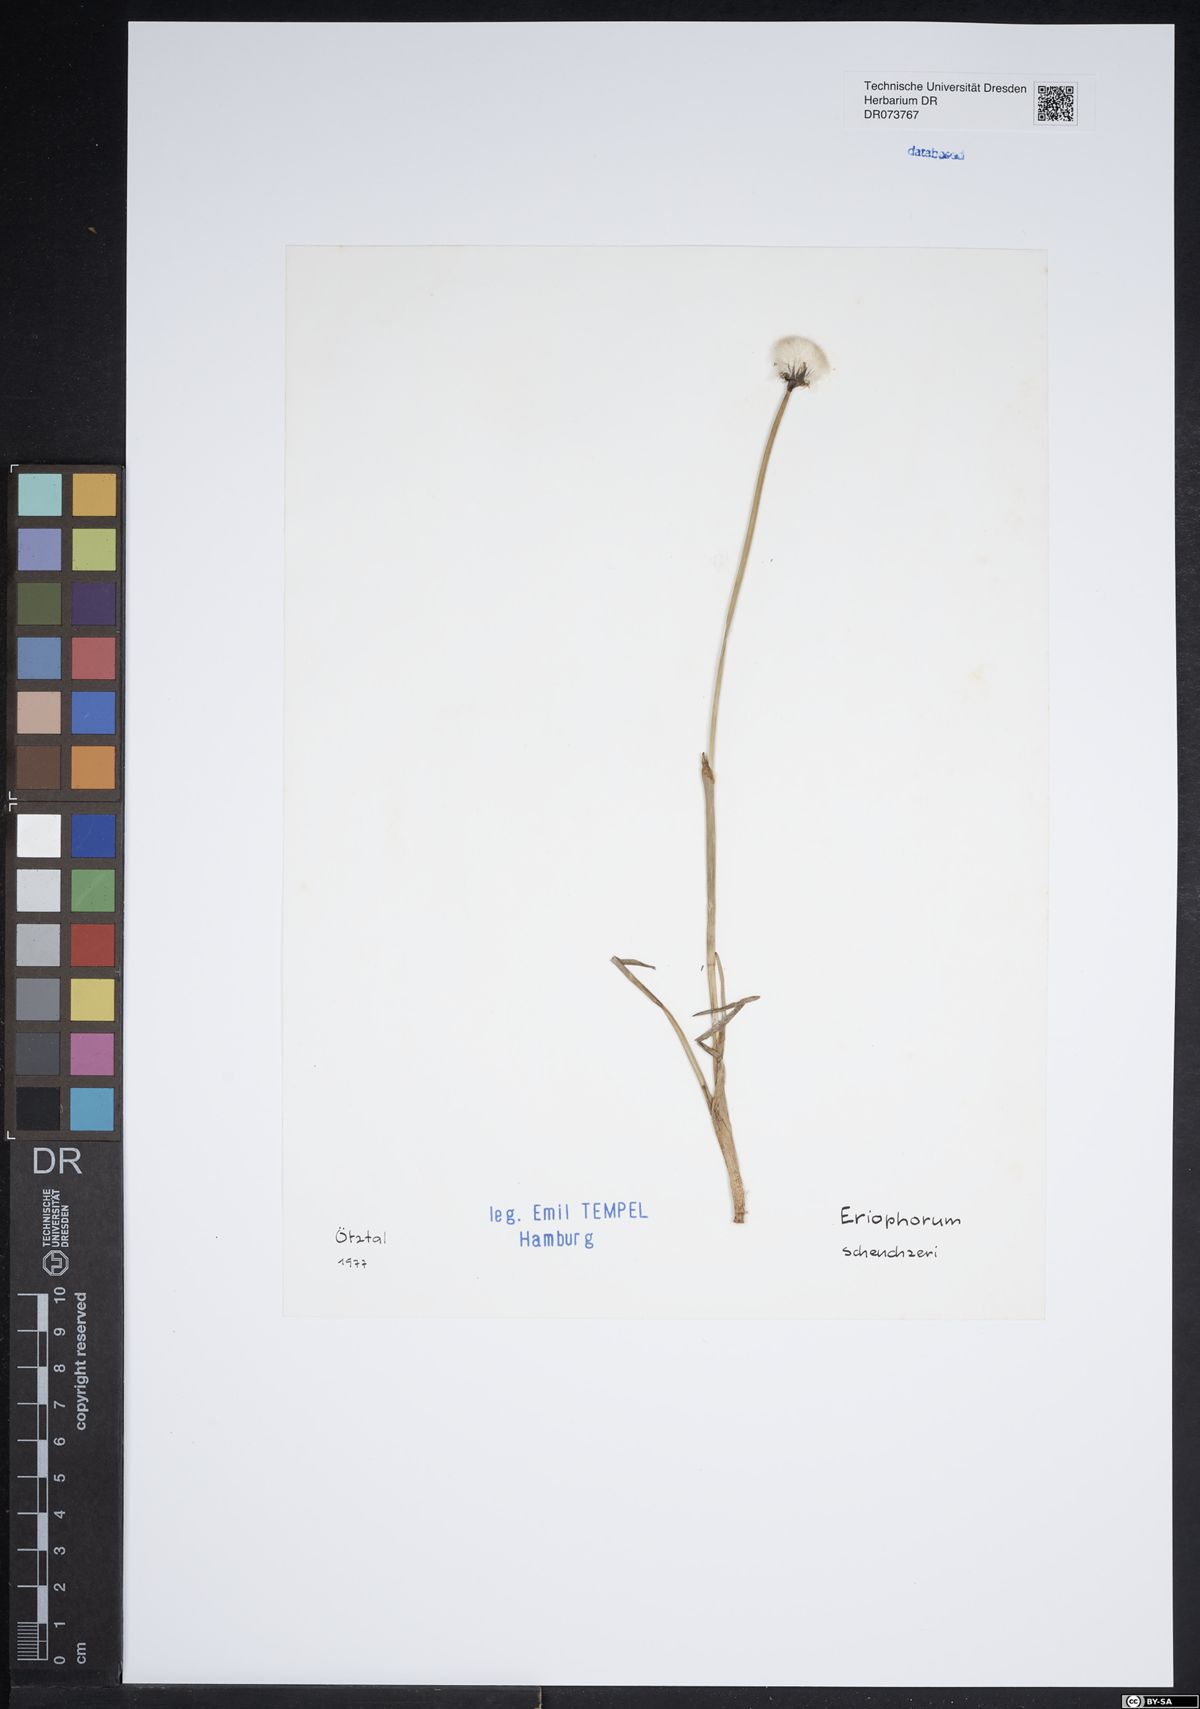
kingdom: Plantae
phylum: Tracheophyta
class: Liliopsida
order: Poales
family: Cyperaceae
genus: Eriophorum
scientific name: Eriophorum scheuchzeri
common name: Scheuchzer's cottongrass
